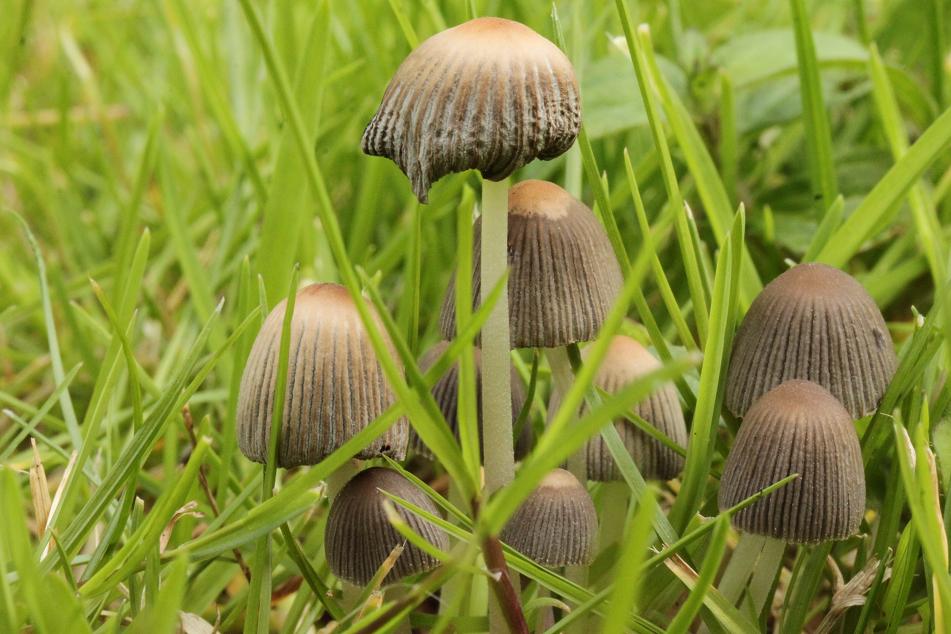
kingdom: Fungi
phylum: Basidiomycota
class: Agaricomycetes
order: Agaricales
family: Psathyrellaceae
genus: Tulosesus
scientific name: Tulosesus hiascens
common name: udspilet blækhat
